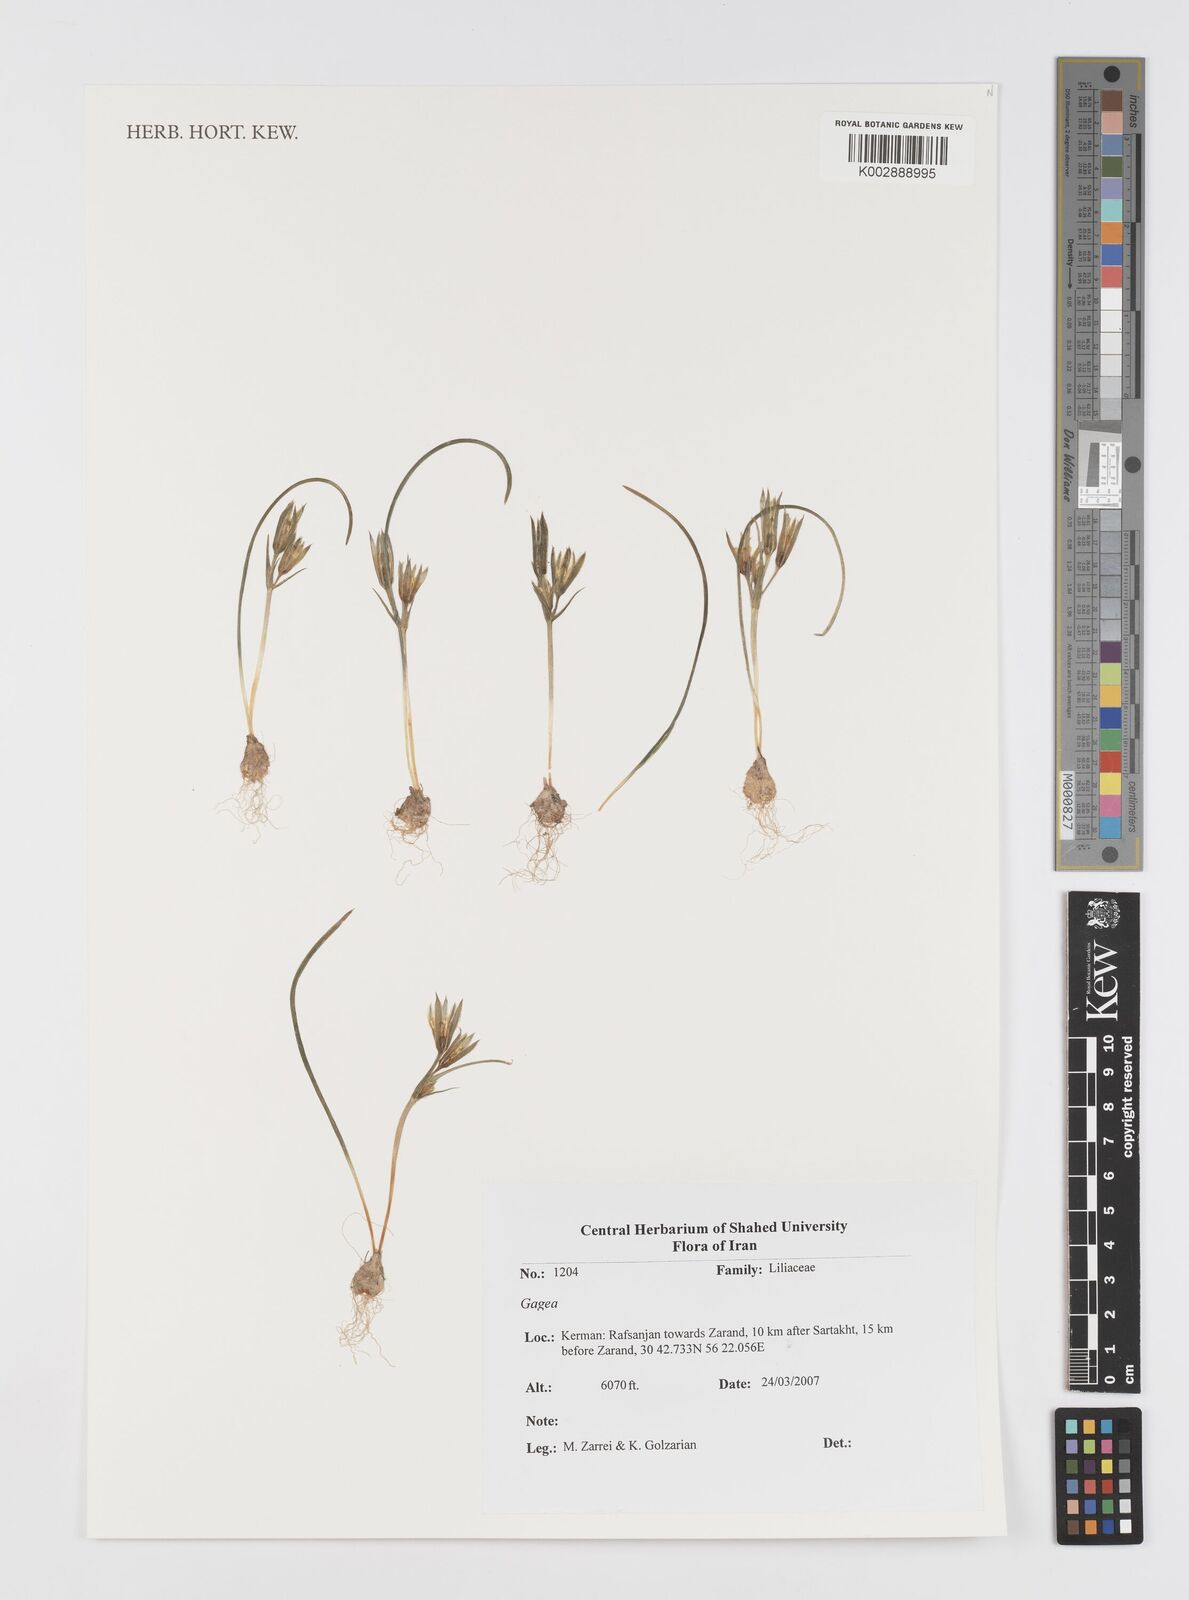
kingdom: Plantae
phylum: Tracheophyta
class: Liliopsida
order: Liliales
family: Liliaceae
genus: Gagea
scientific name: Gagea
